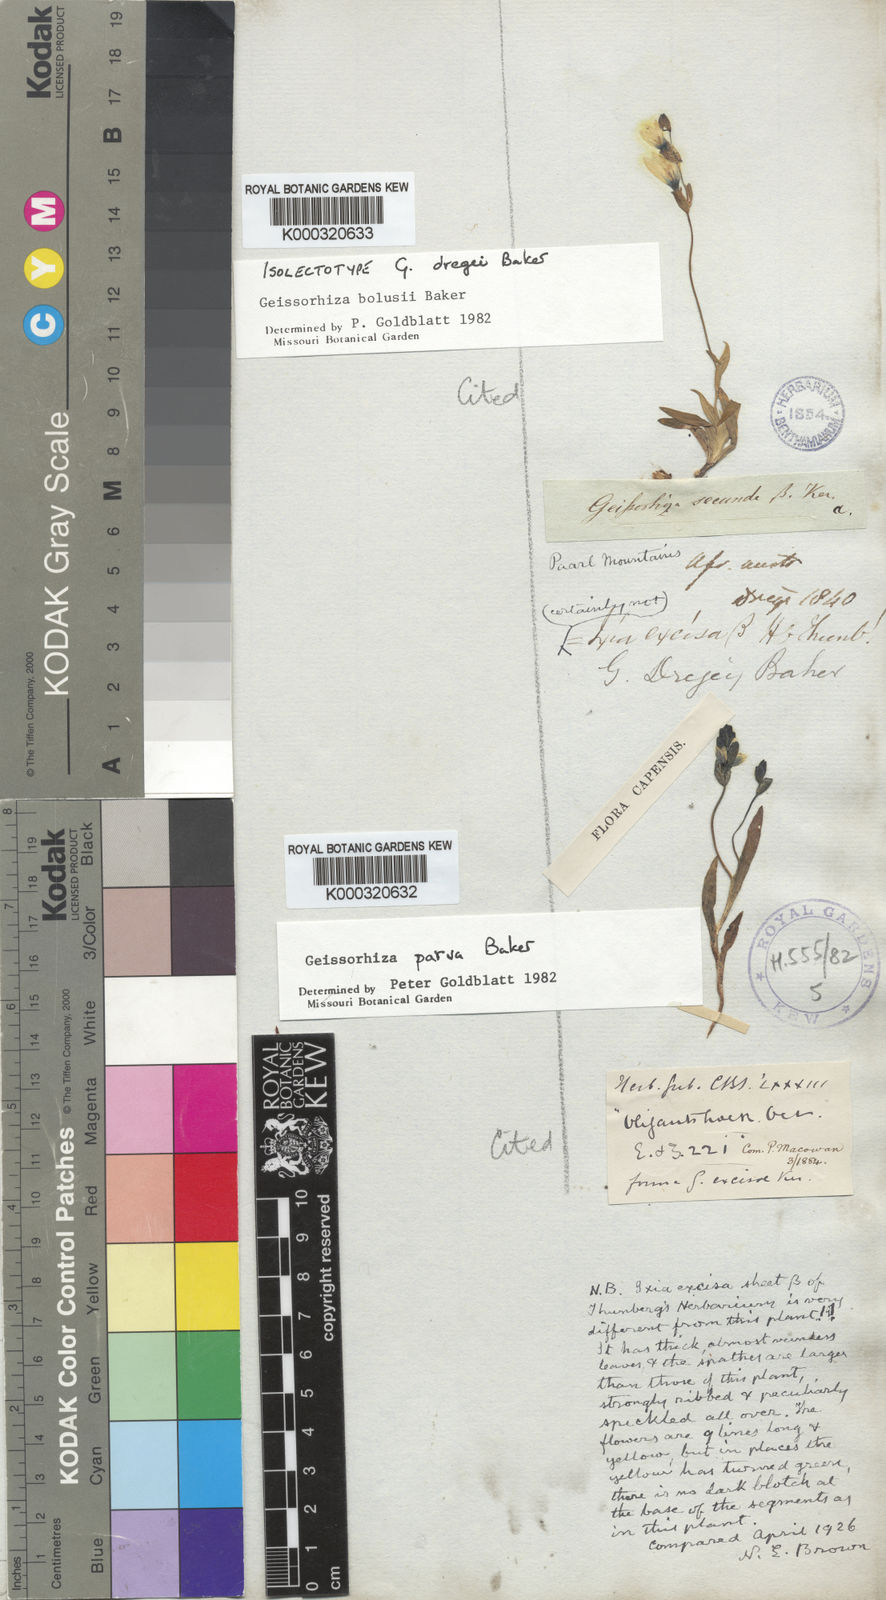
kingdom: Plantae
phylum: Tracheophyta
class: Liliopsida
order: Asparagales
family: Iridaceae
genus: Geissorhiza
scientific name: Geissorhiza bolusii
